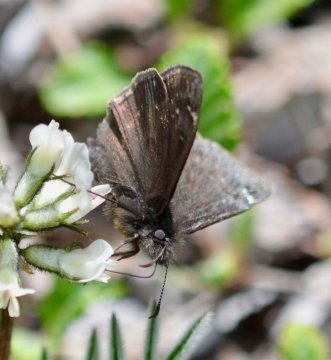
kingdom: Animalia
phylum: Arthropoda
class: Insecta
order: Lepidoptera
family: Hesperiidae
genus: Gesta
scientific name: Gesta
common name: Persius Duskywing
